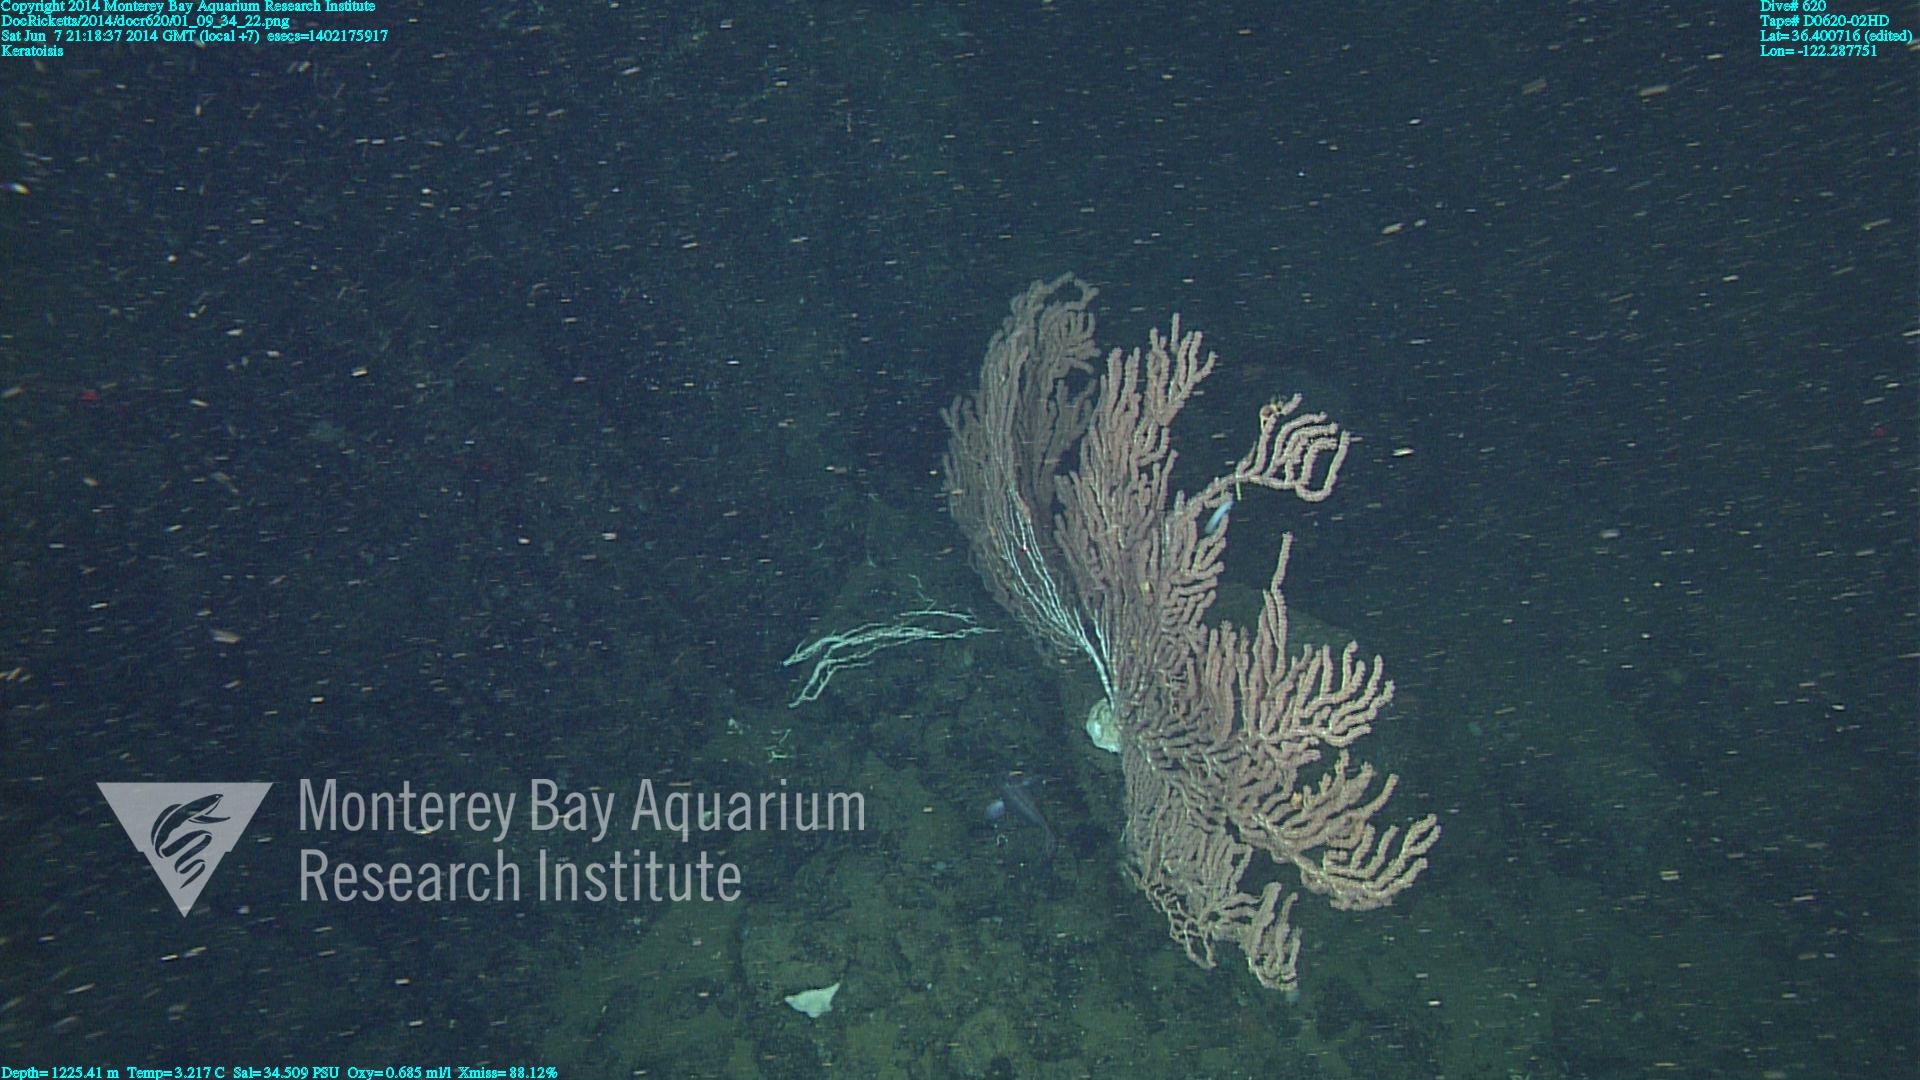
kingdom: Animalia
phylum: Cnidaria
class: Anthozoa
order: Scleralcyonacea
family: Keratoisididae
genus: Keratoisis
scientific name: Keratoisis
